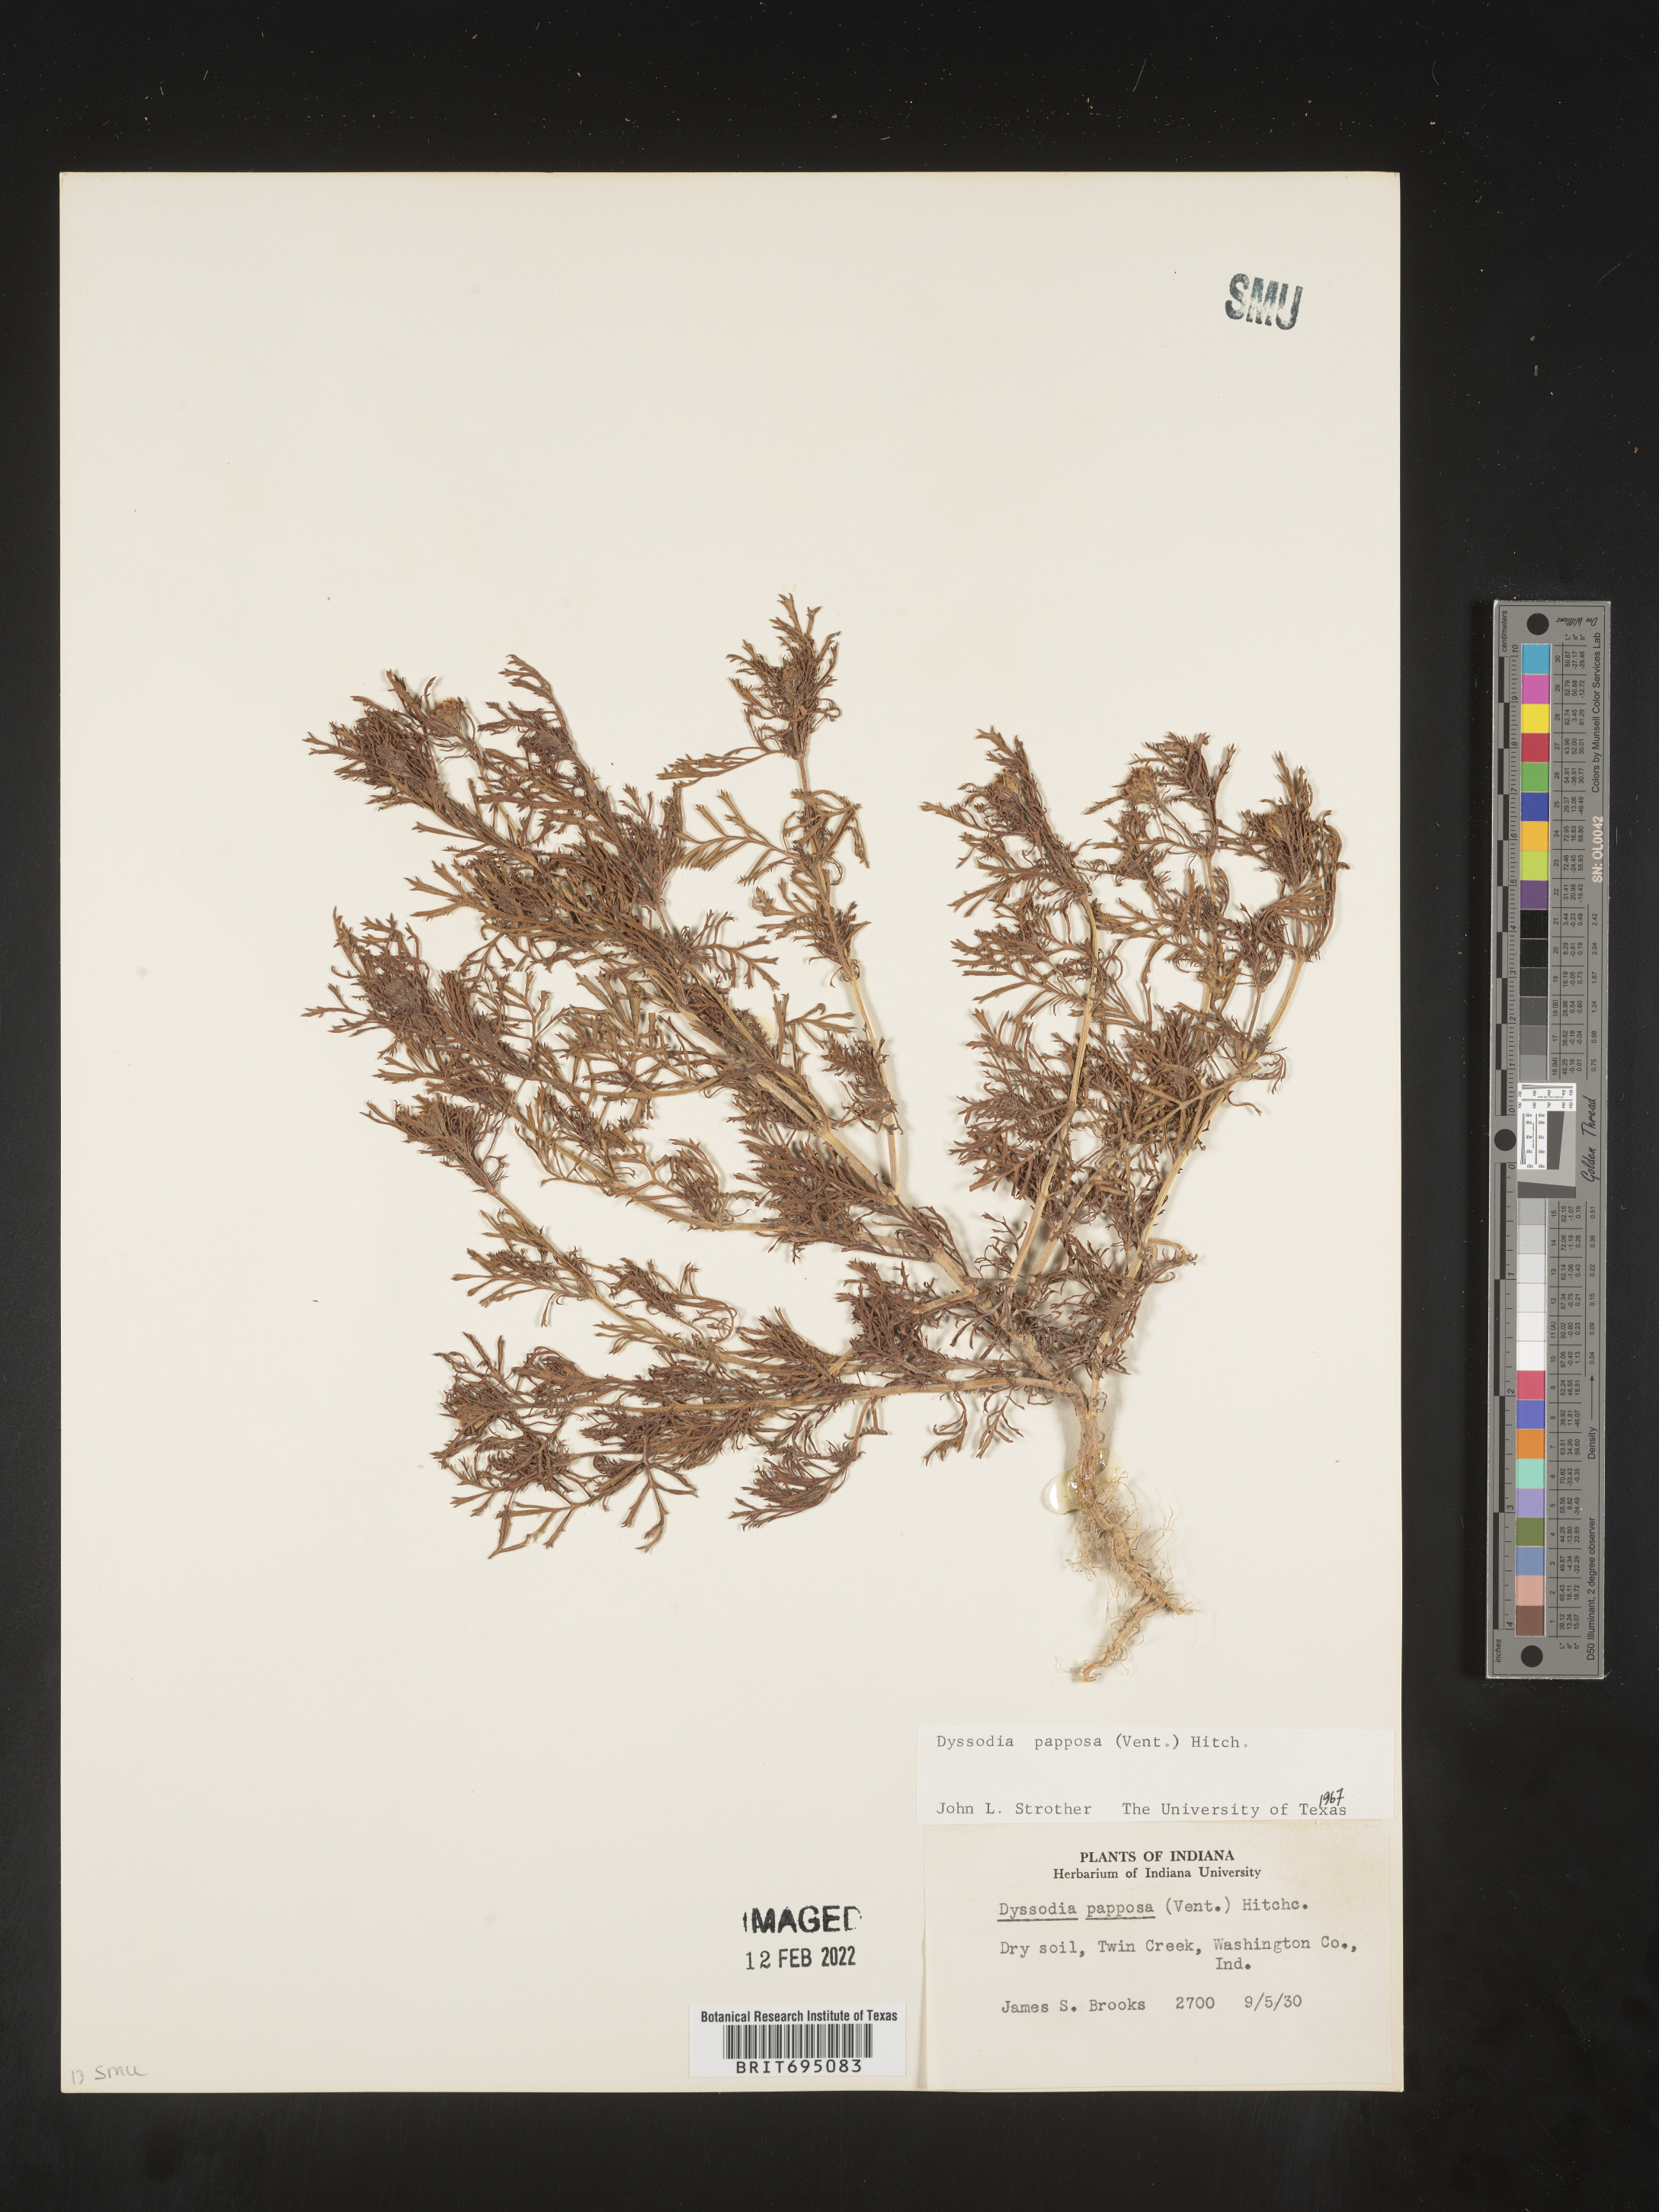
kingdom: Plantae
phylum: Tracheophyta
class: Magnoliopsida
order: Asterales
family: Asteraceae
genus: Dyssodia
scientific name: Dyssodia papposa
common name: Dogweed
